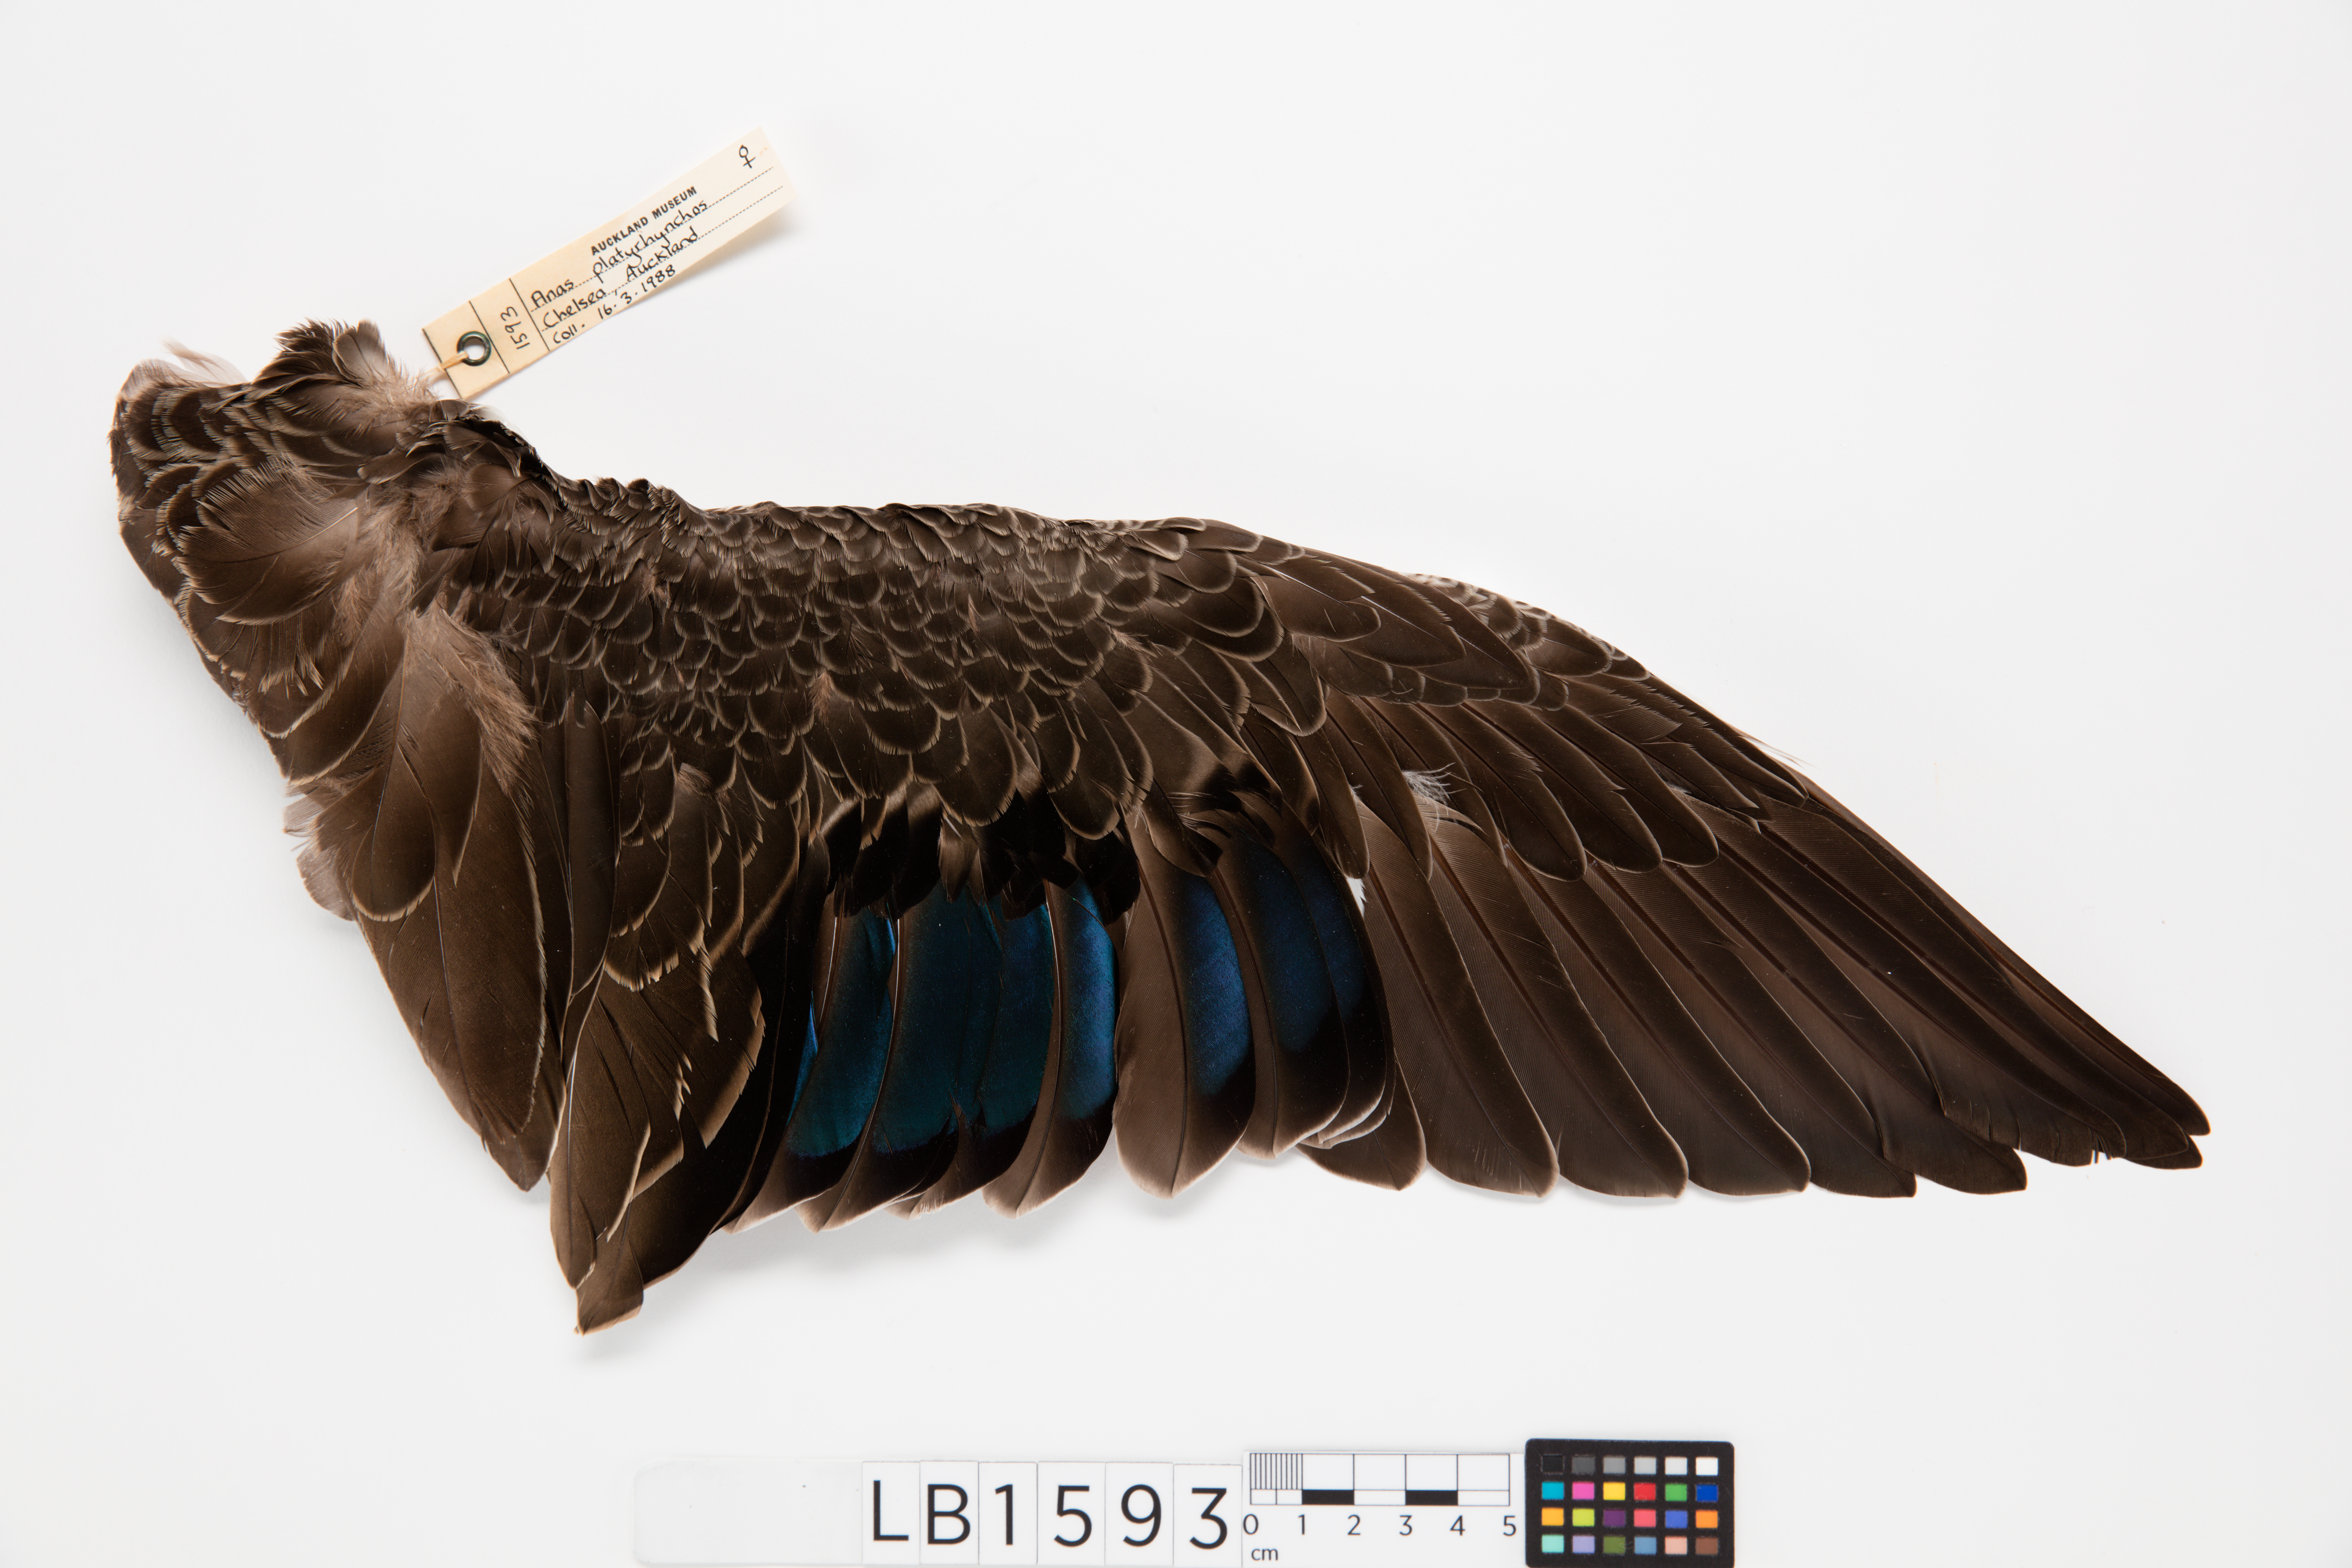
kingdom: Animalia
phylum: Chordata
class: Aves
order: Anseriformes
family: Anatidae
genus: Anas
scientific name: Anas platyrhynchos
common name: Mallard
